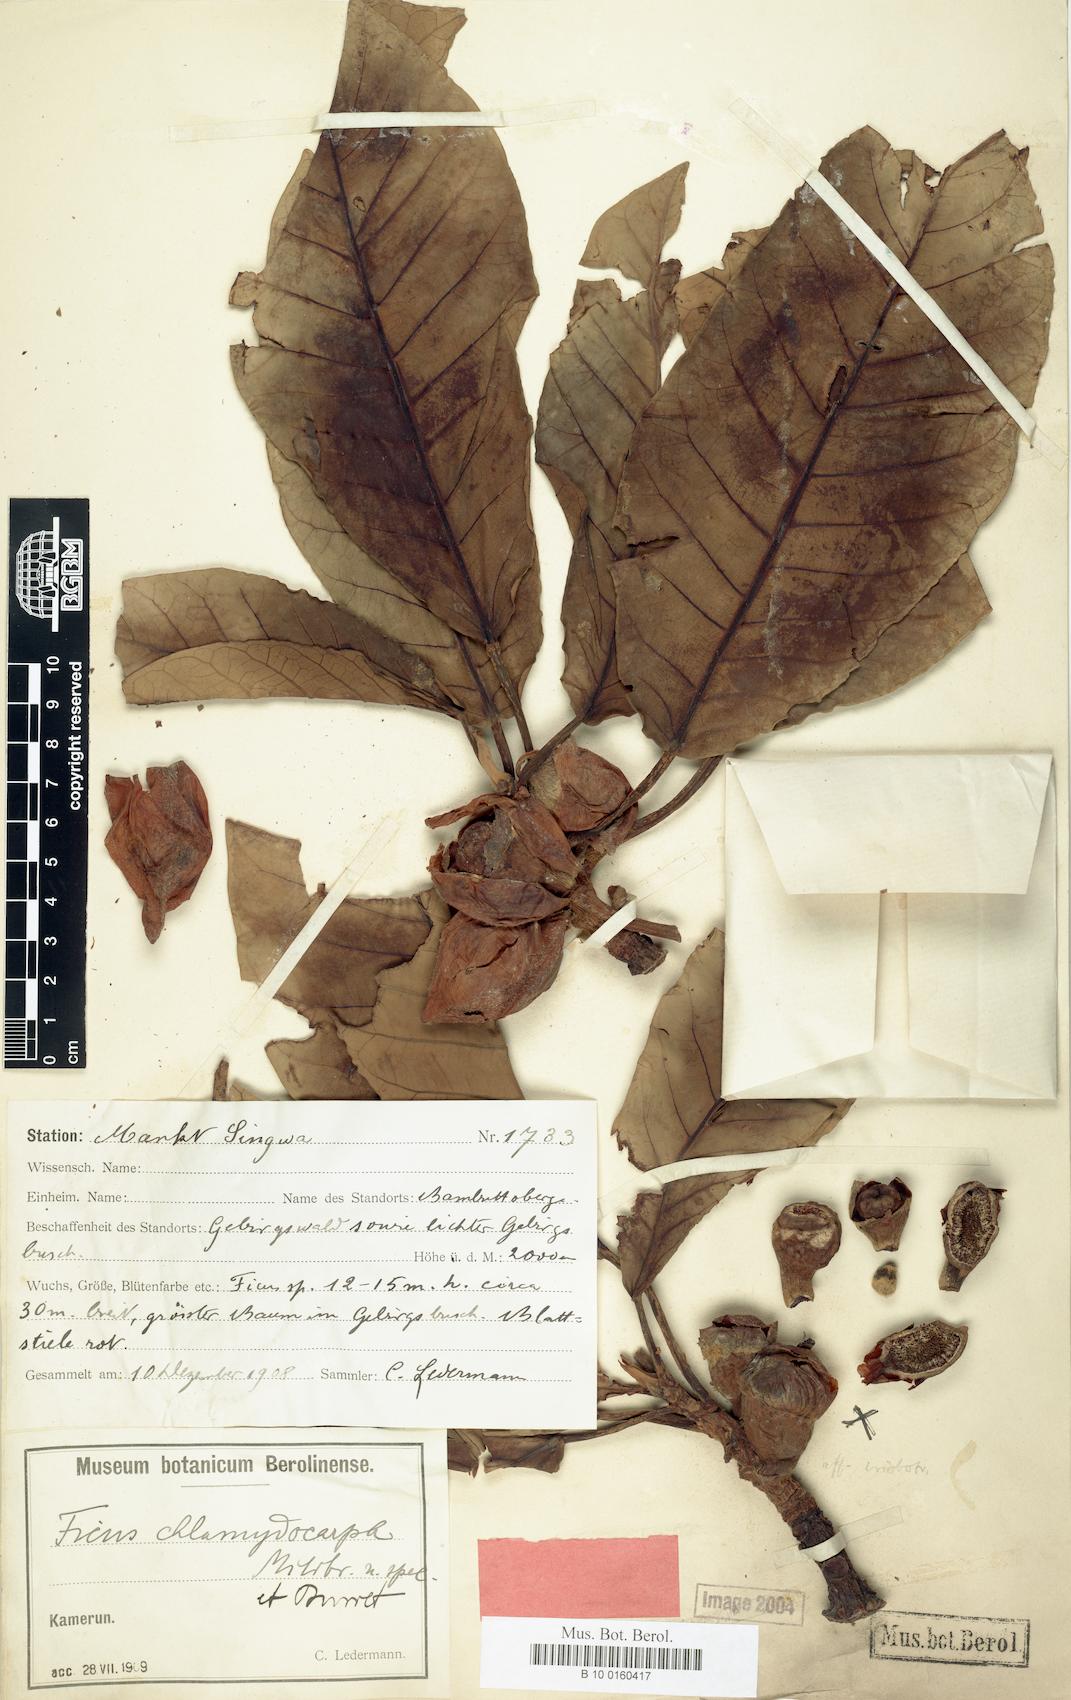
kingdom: Plantae
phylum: Tracheophyta
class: Magnoliopsida
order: Rosales
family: Moraceae
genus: Ficus
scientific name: Ficus chlamydocarpa
